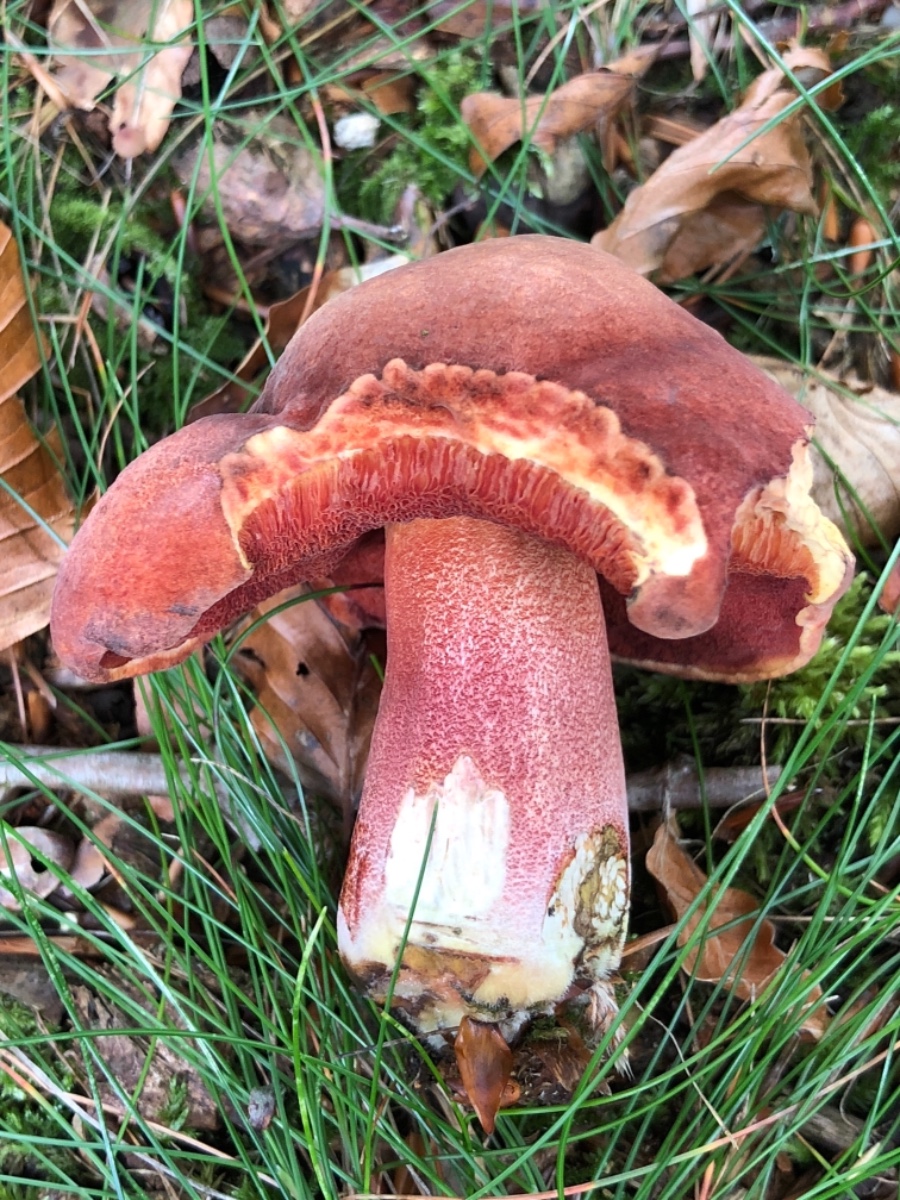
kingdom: Fungi
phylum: Basidiomycota
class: Agaricomycetes
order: Boletales
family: Boletaceae
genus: Neoboletus
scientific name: Neoboletus erythropus
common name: punktstokket indigorørhat
